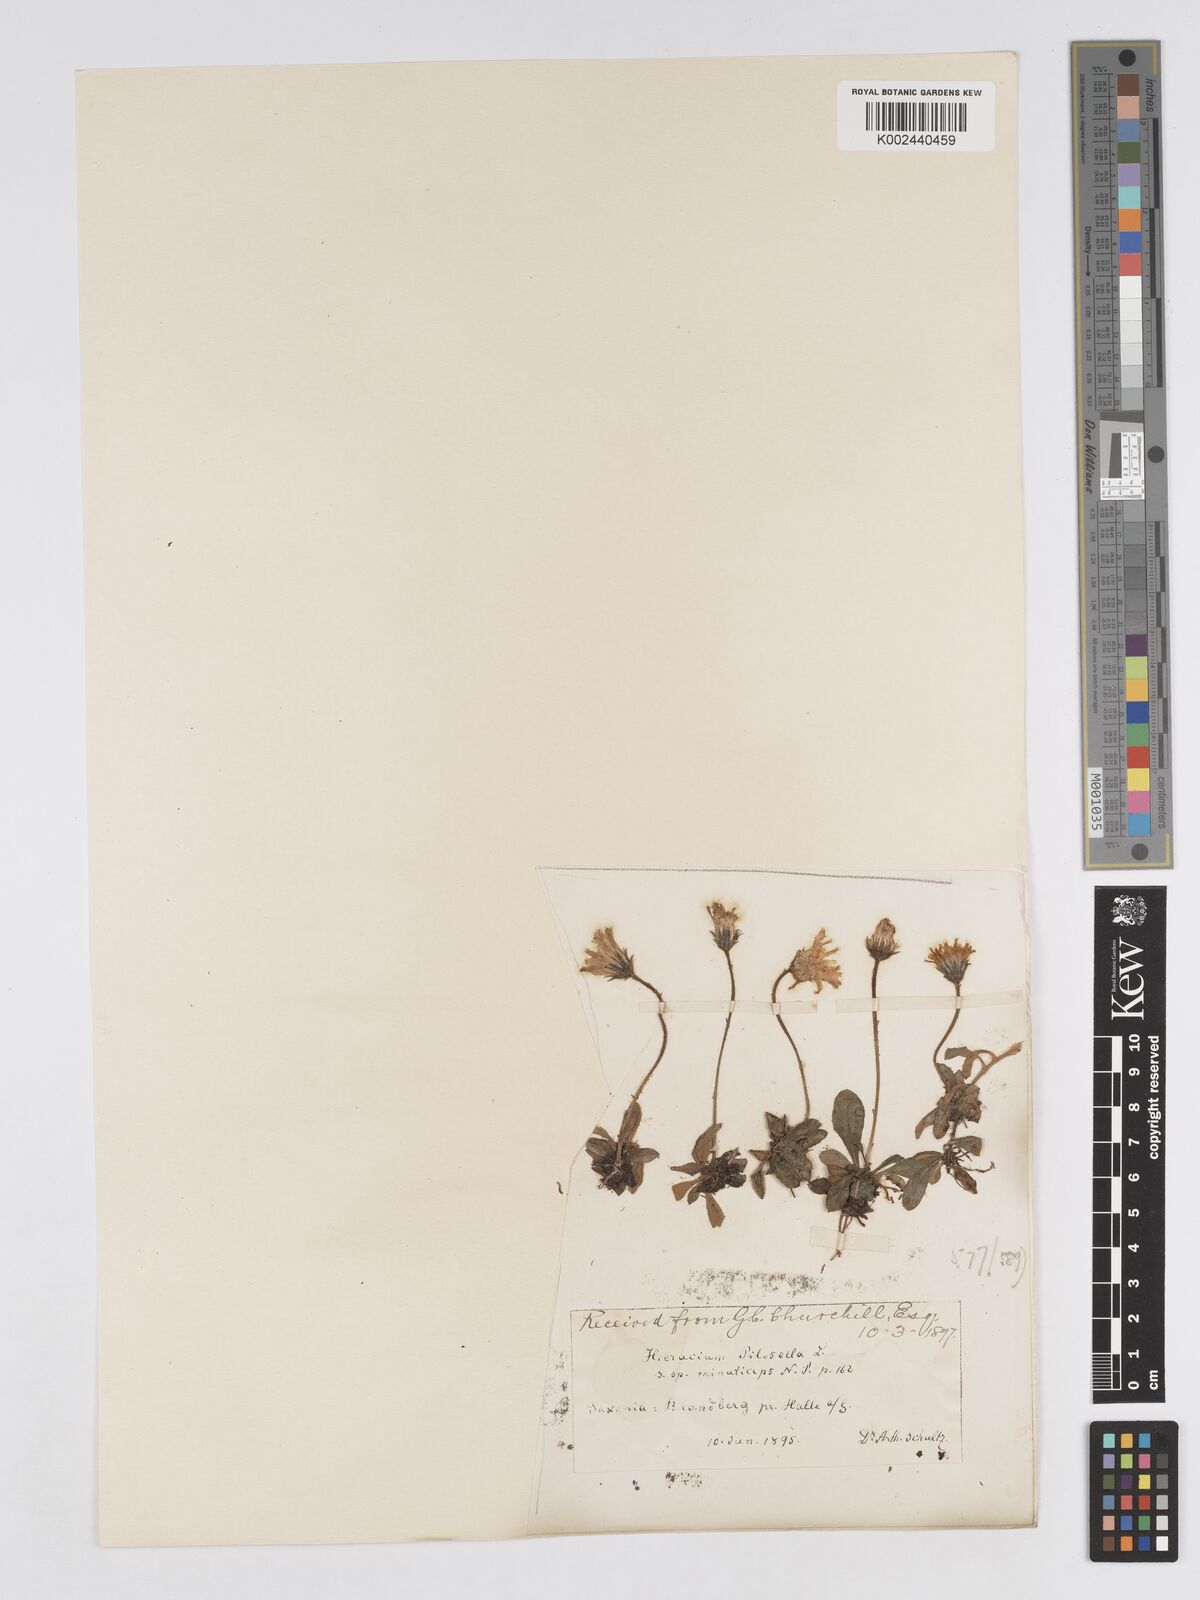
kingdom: Plantae
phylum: Tracheophyta
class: Magnoliopsida
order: Asterales
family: Asteraceae
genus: Pilosella
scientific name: Pilosella officinarum
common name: Mouse-ear hawkweed
